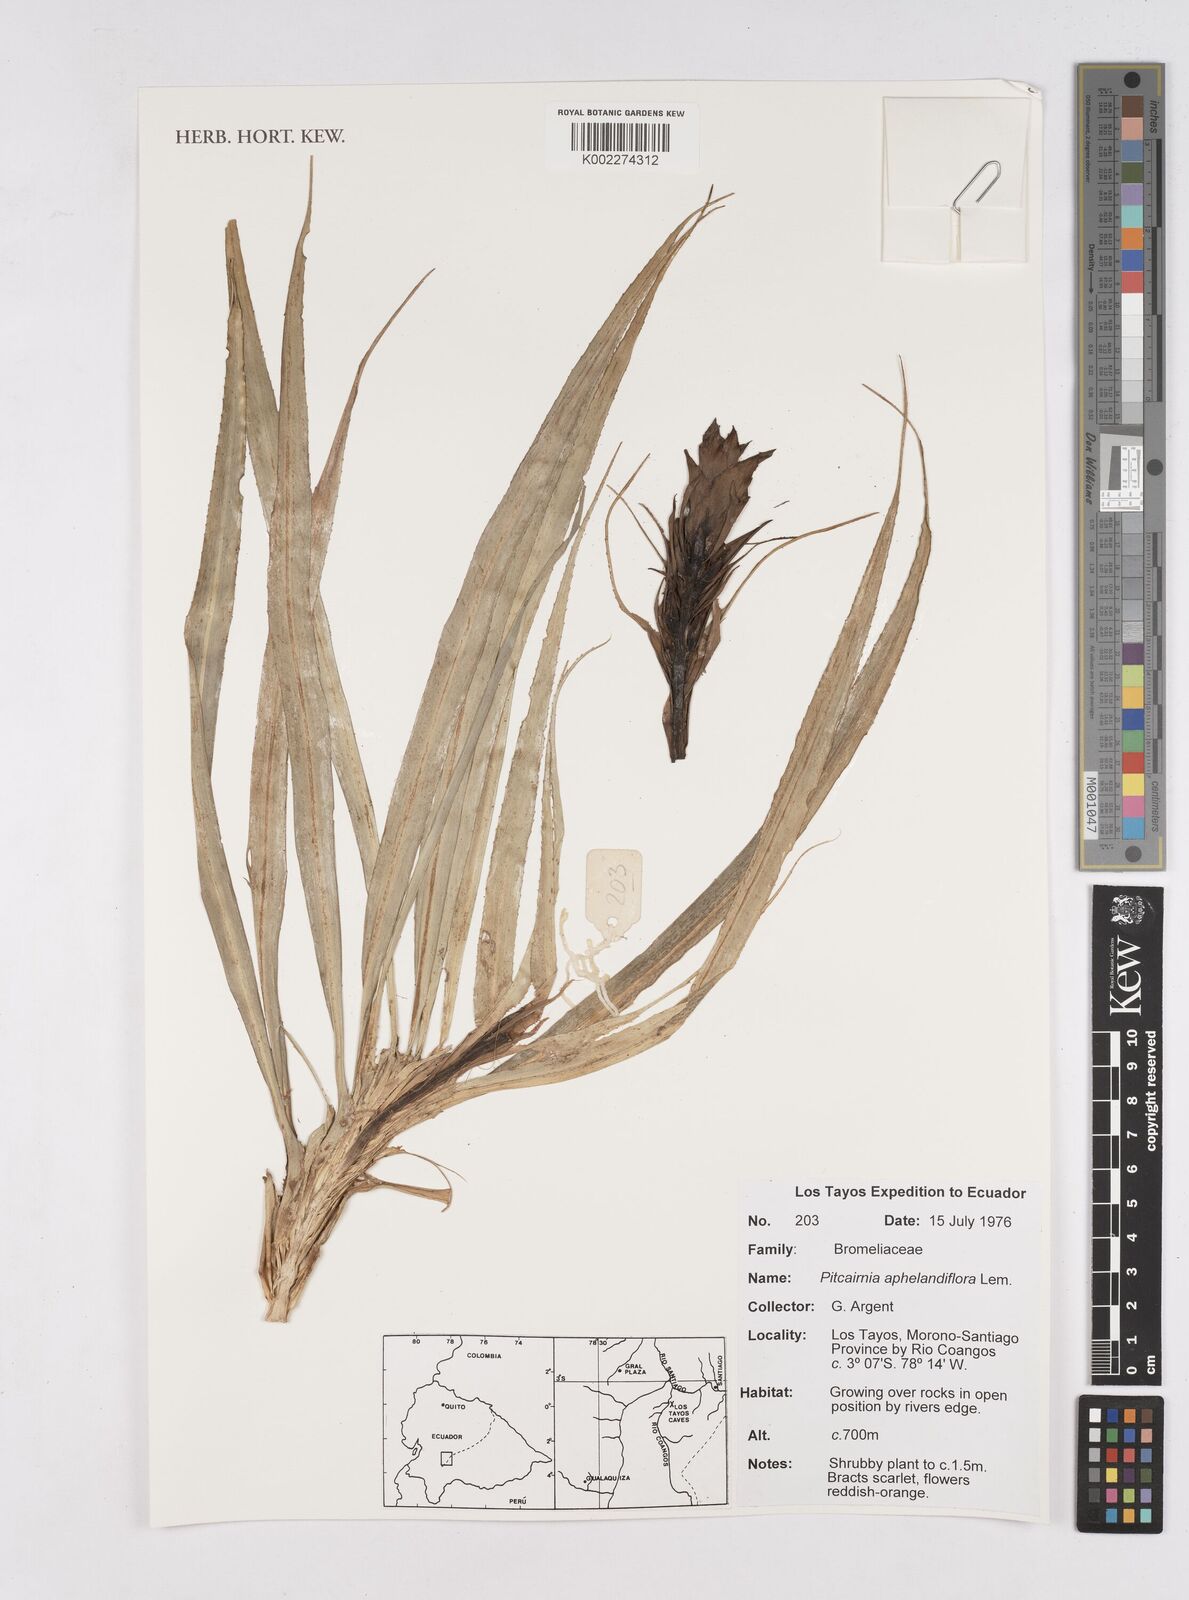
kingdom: Plantae
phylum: Tracheophyta
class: Liliopsida
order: Poales
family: Bromeliaceae
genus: Pitcairnia
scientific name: Pitcairnia aphelandriflora
